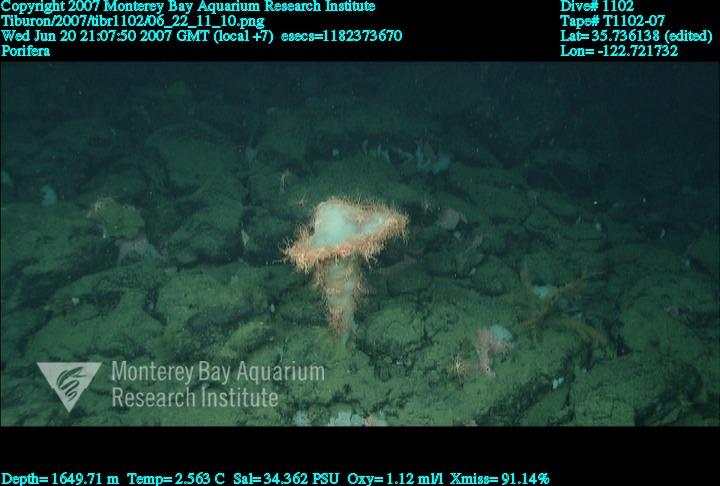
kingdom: Animalia
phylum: Porifera
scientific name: Porifera
